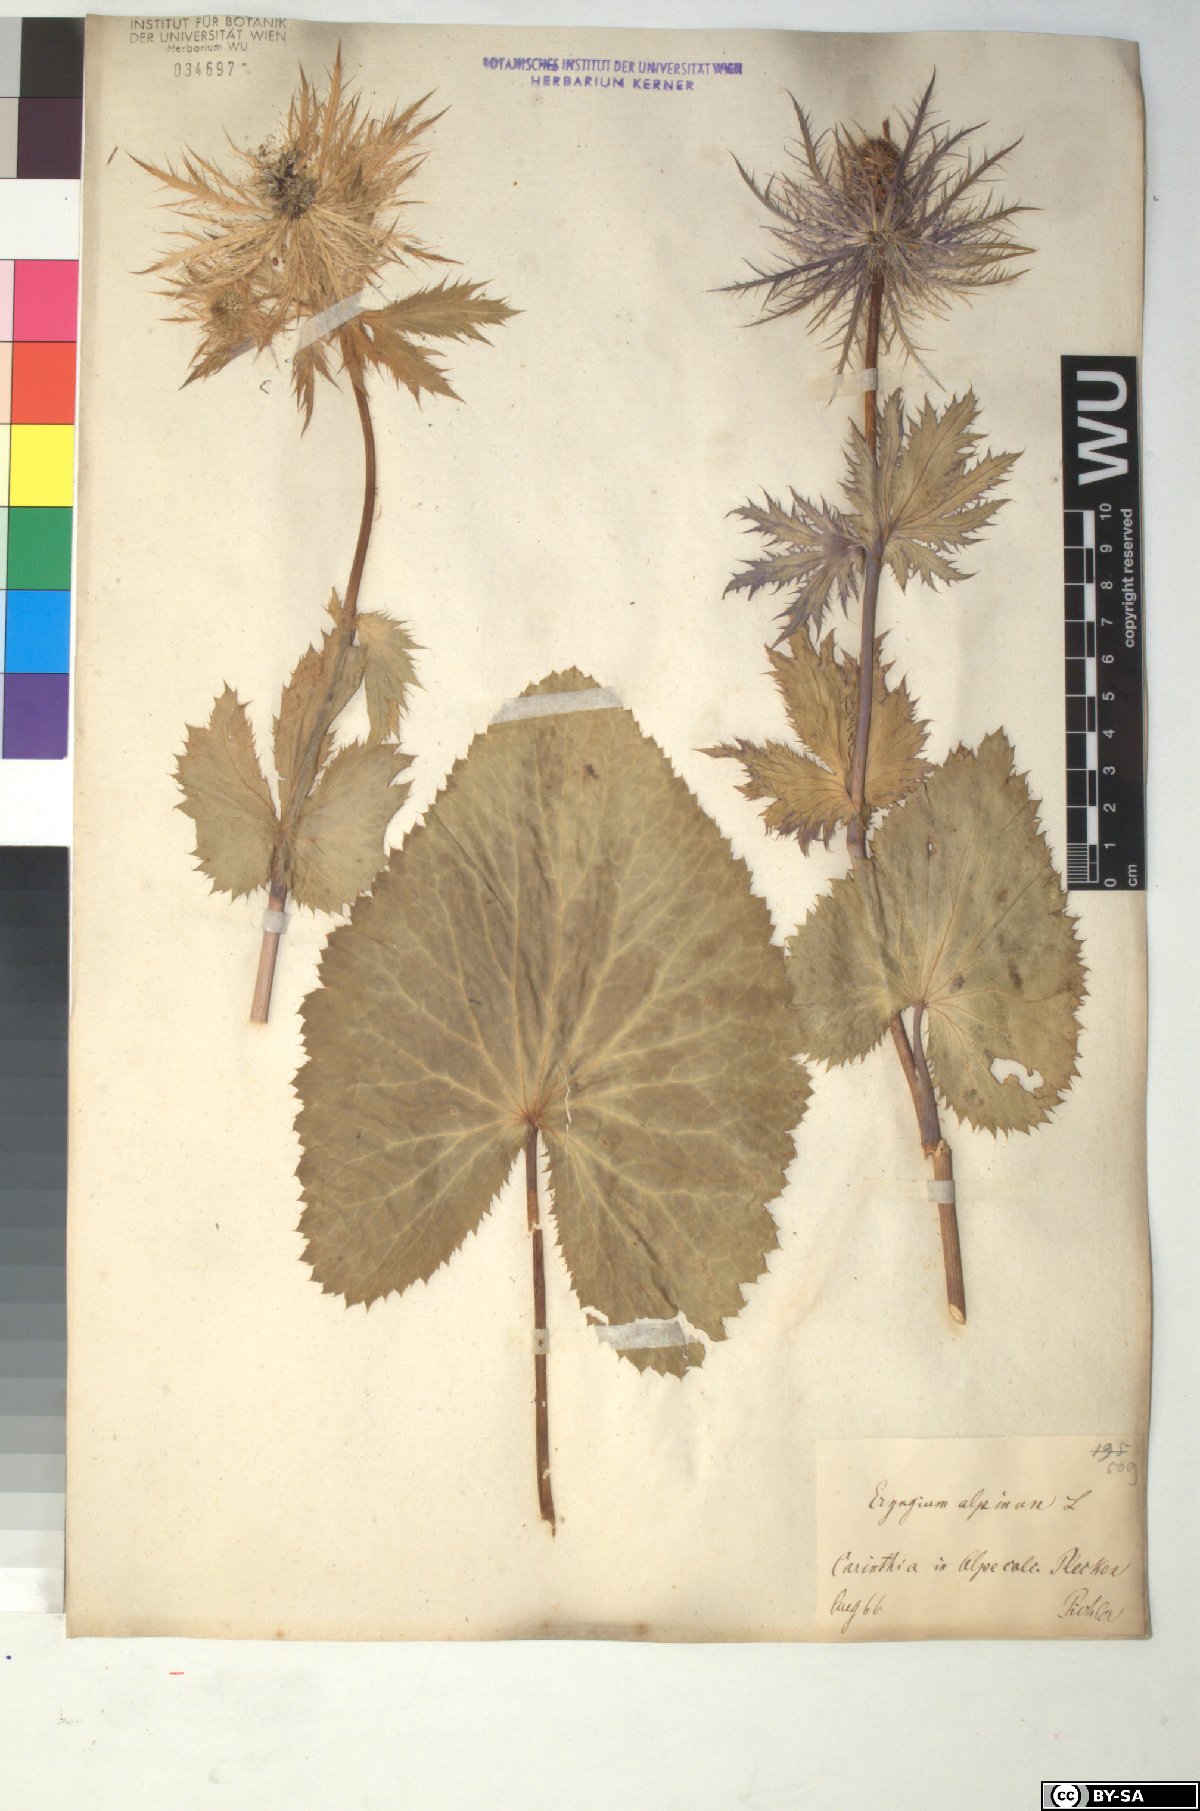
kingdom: Plantae
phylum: Tracheophyta
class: Magnoliopsida
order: Apiales
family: Apiaceae
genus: Eryngium
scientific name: Eryngium alpinum
